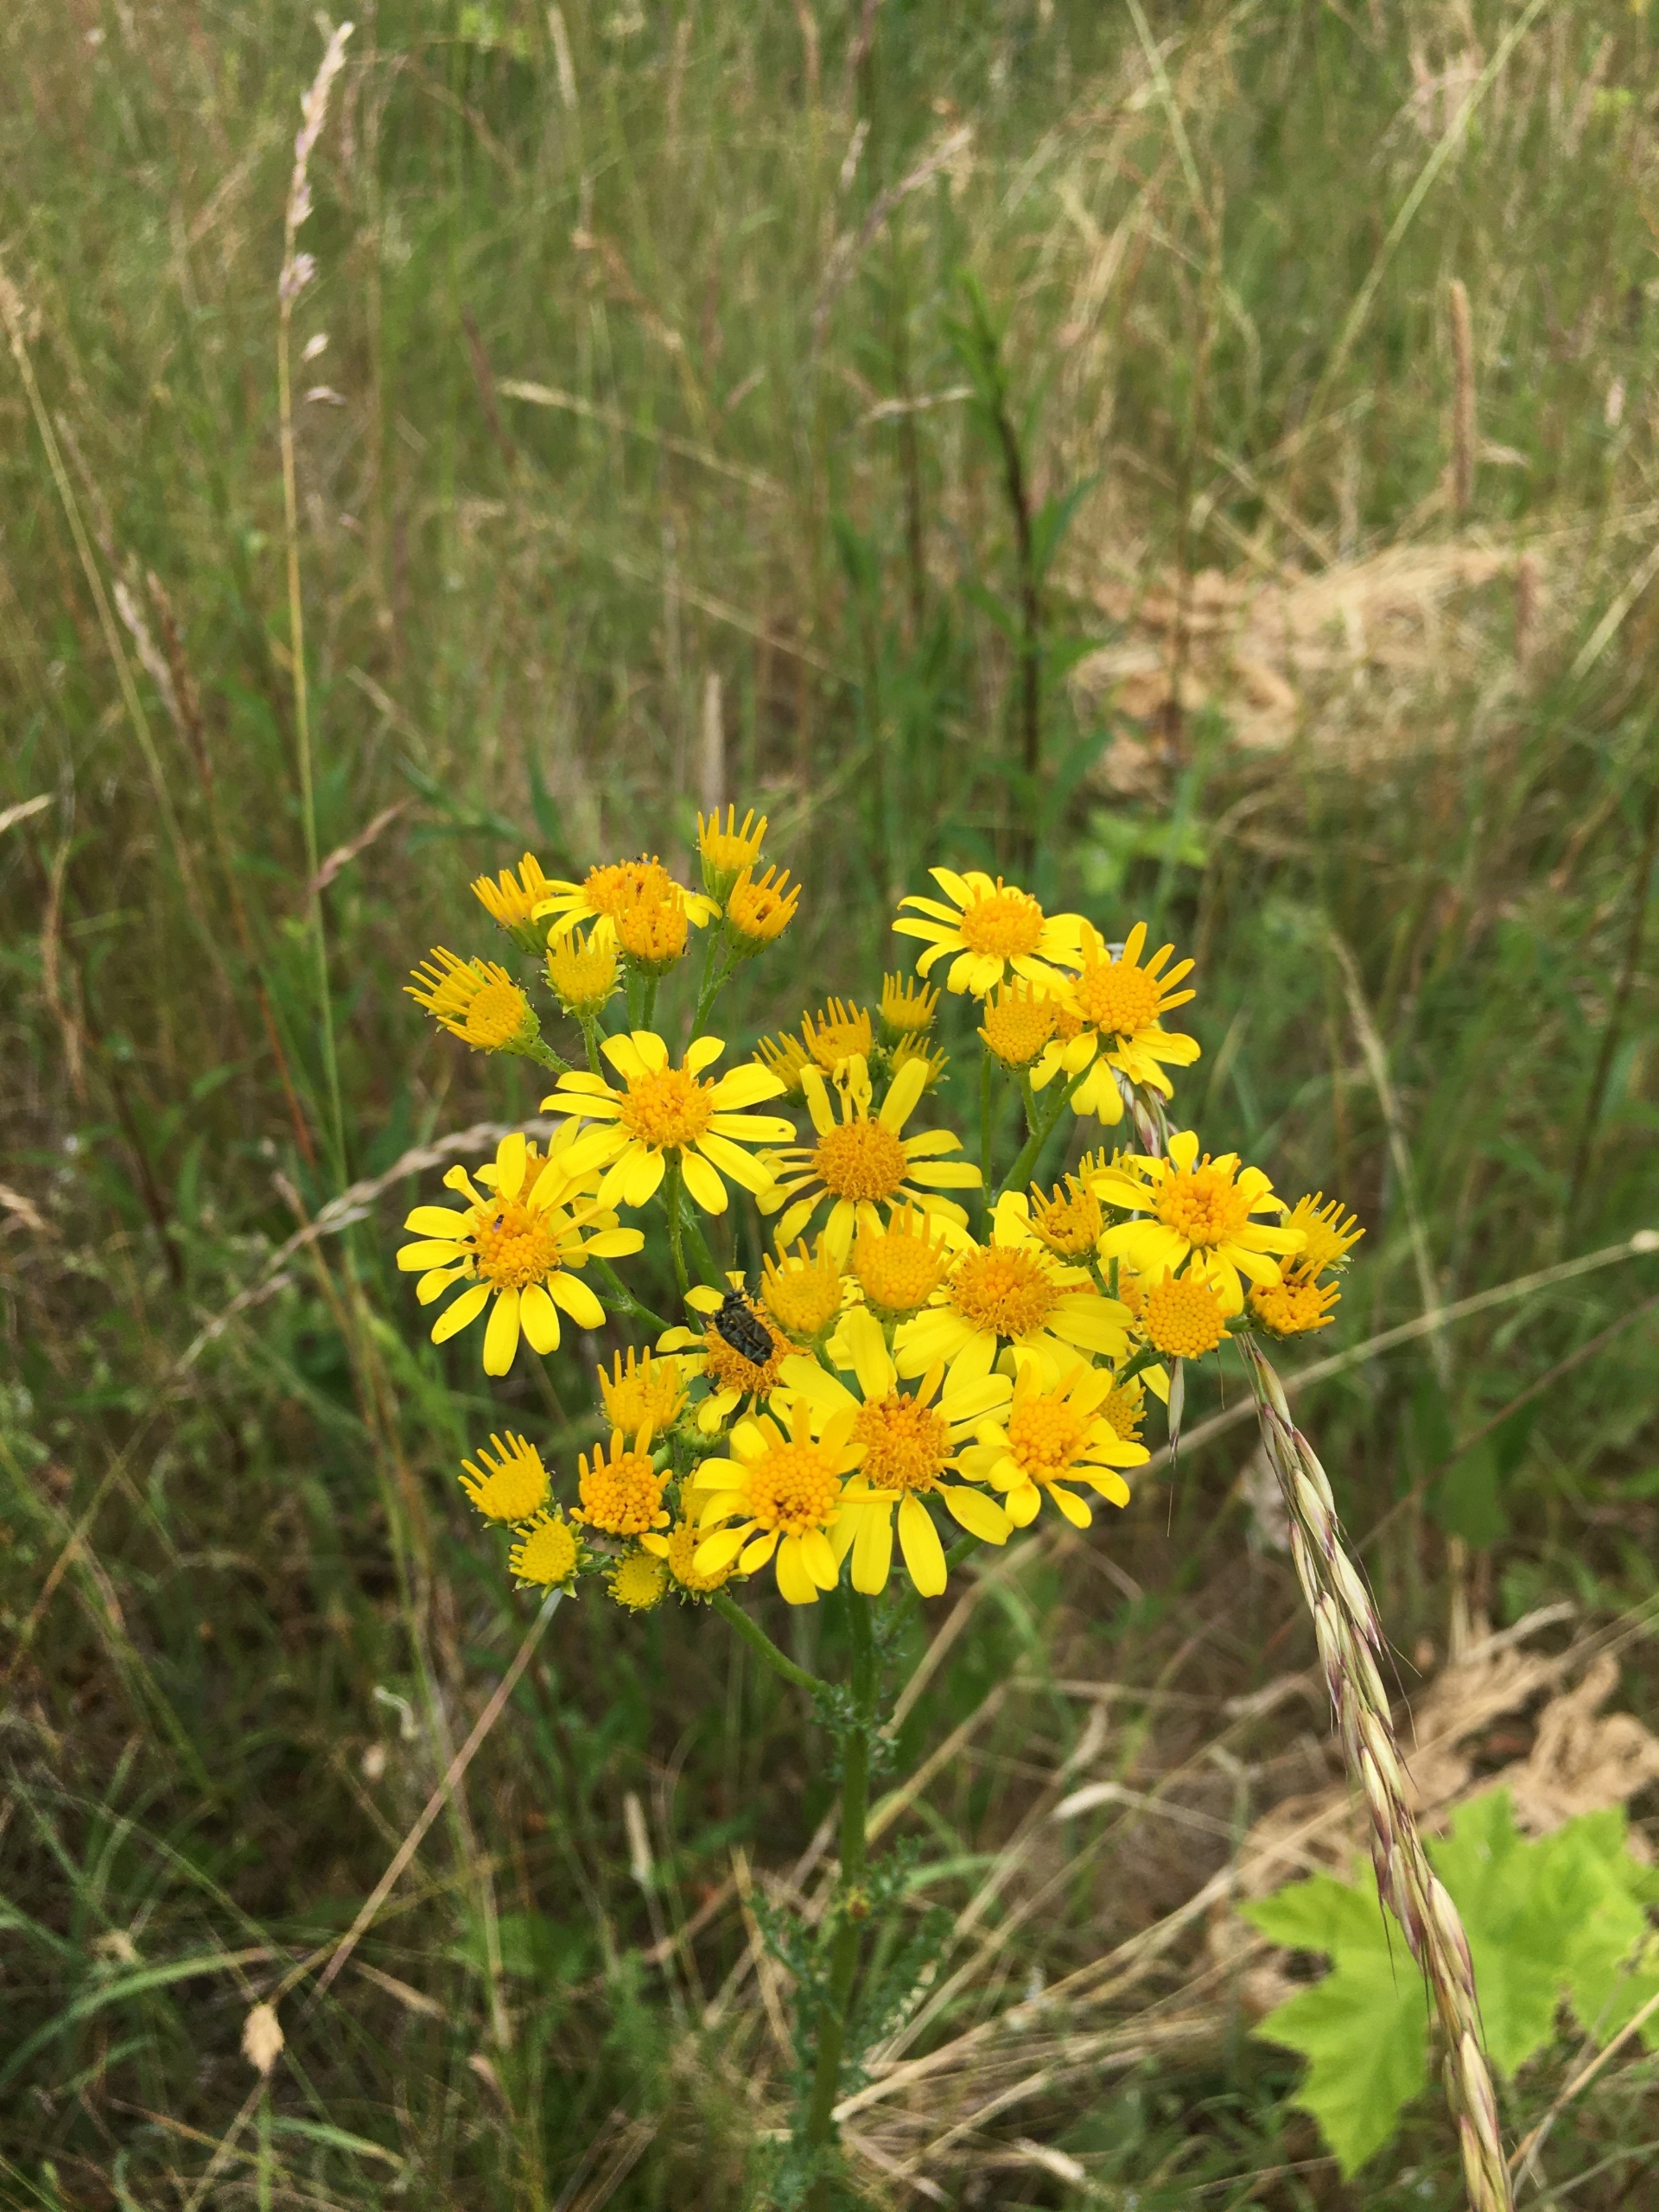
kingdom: Plantae
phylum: Tracheophyta
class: Magnoliopsida
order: Asterales
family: Asteraceae
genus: Jacobaea
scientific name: Jacobaea vulgaris
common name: Eng-brandbæger
